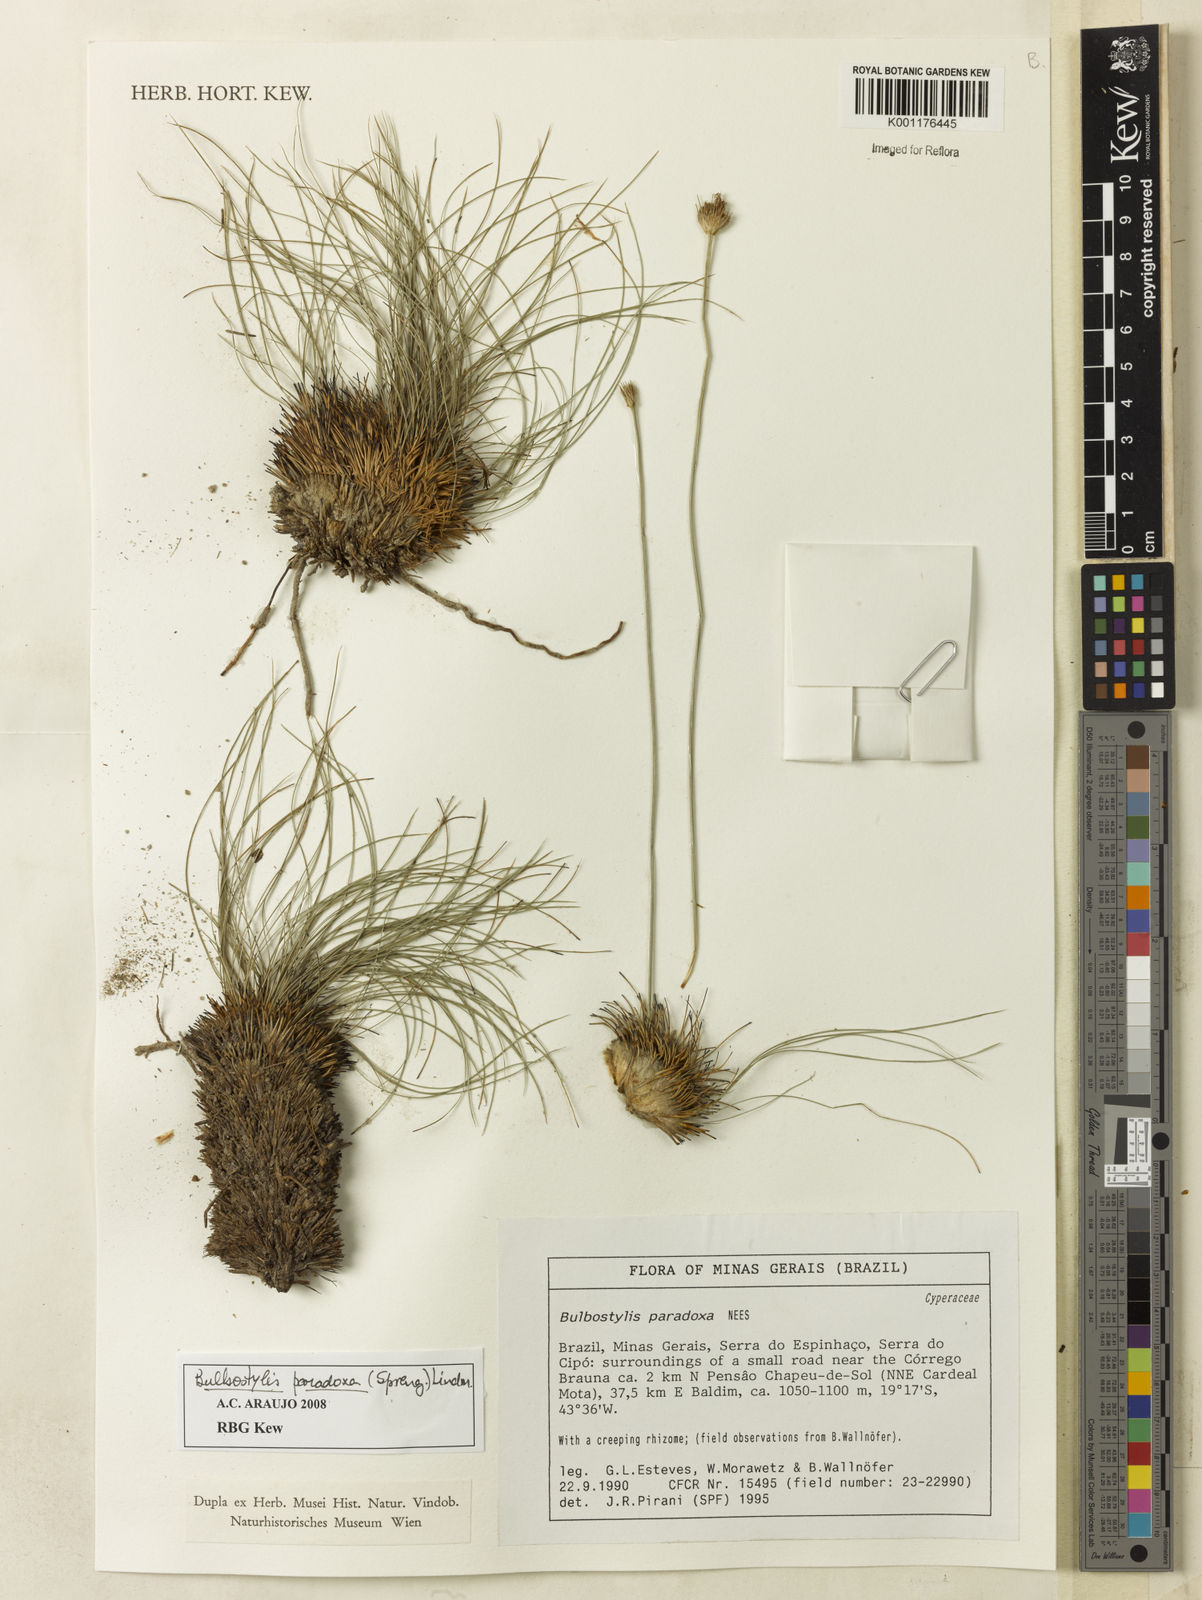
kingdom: Plantae
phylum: Tracheophyta
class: Liliopsida
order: Poales
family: Cyperaceae
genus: Bulbostylis
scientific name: Bulbostylis paradoxa
